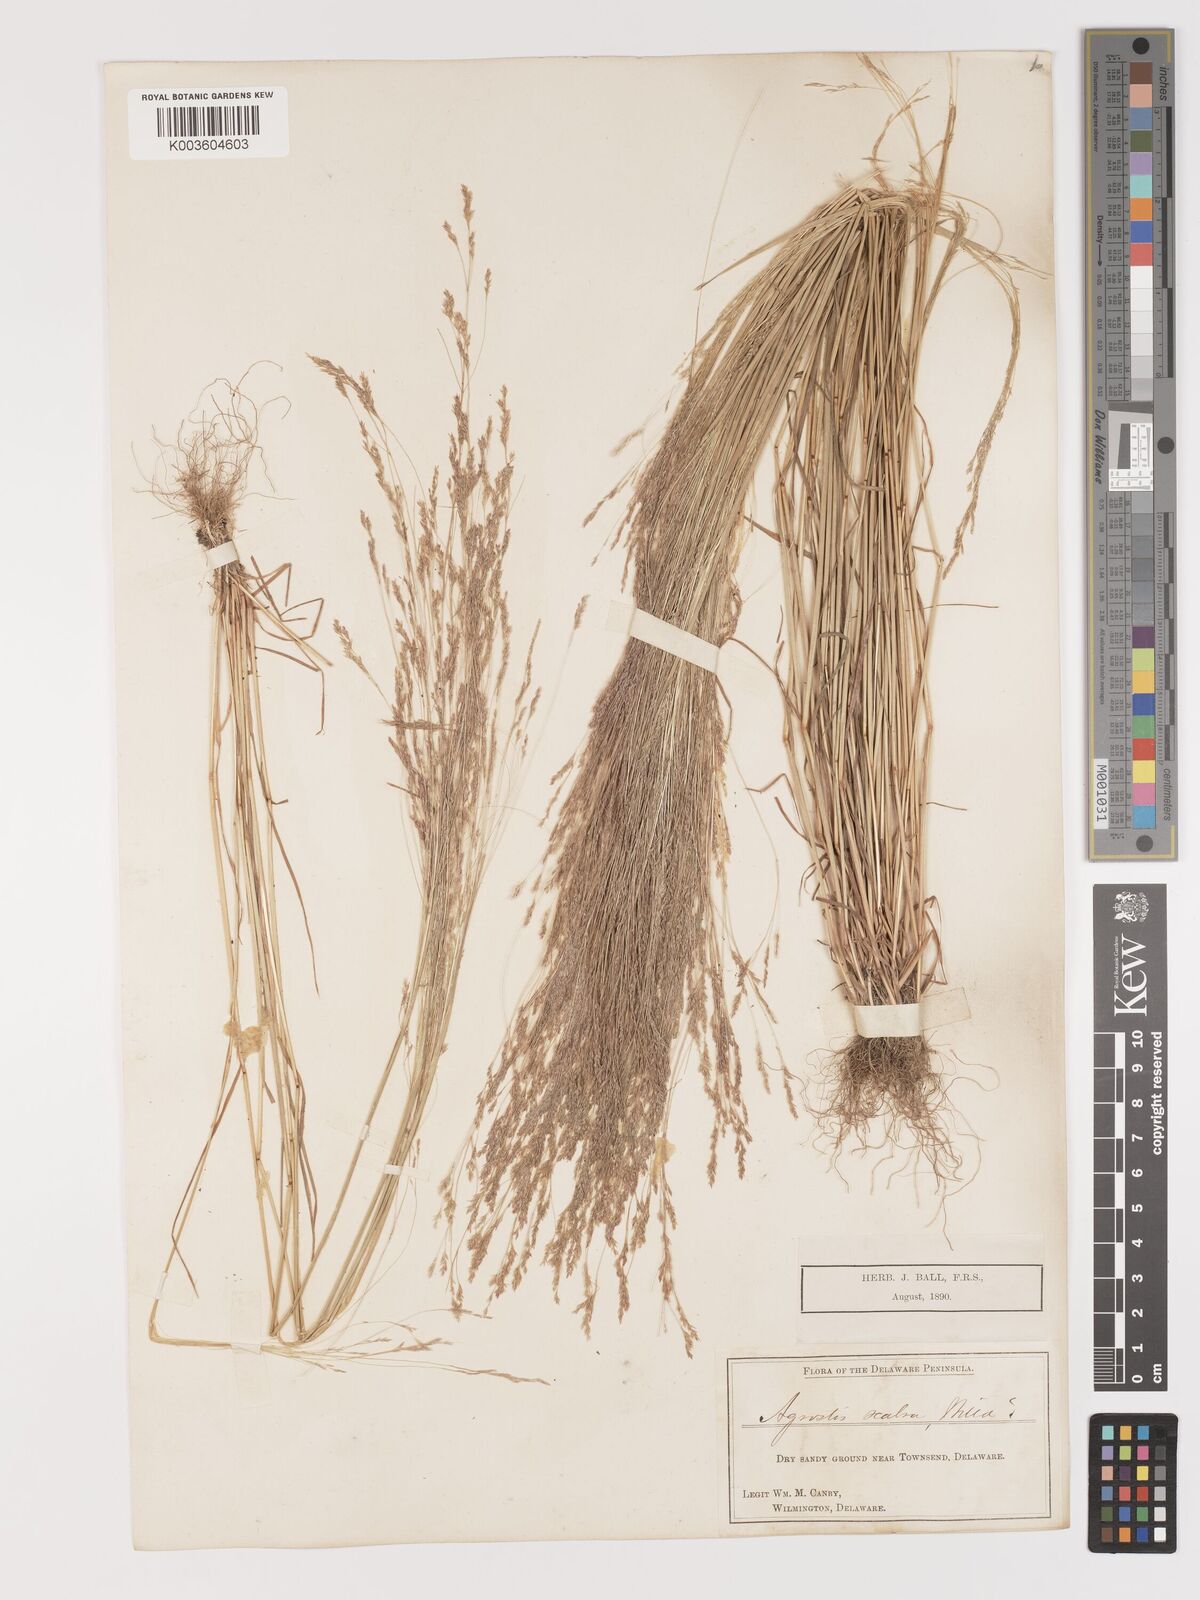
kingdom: Plantae
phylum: Tracheophyta
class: Liliopsida
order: Poales
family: Poaceae
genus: Agrostis
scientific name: Agrostis hyemalis
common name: Small bent
